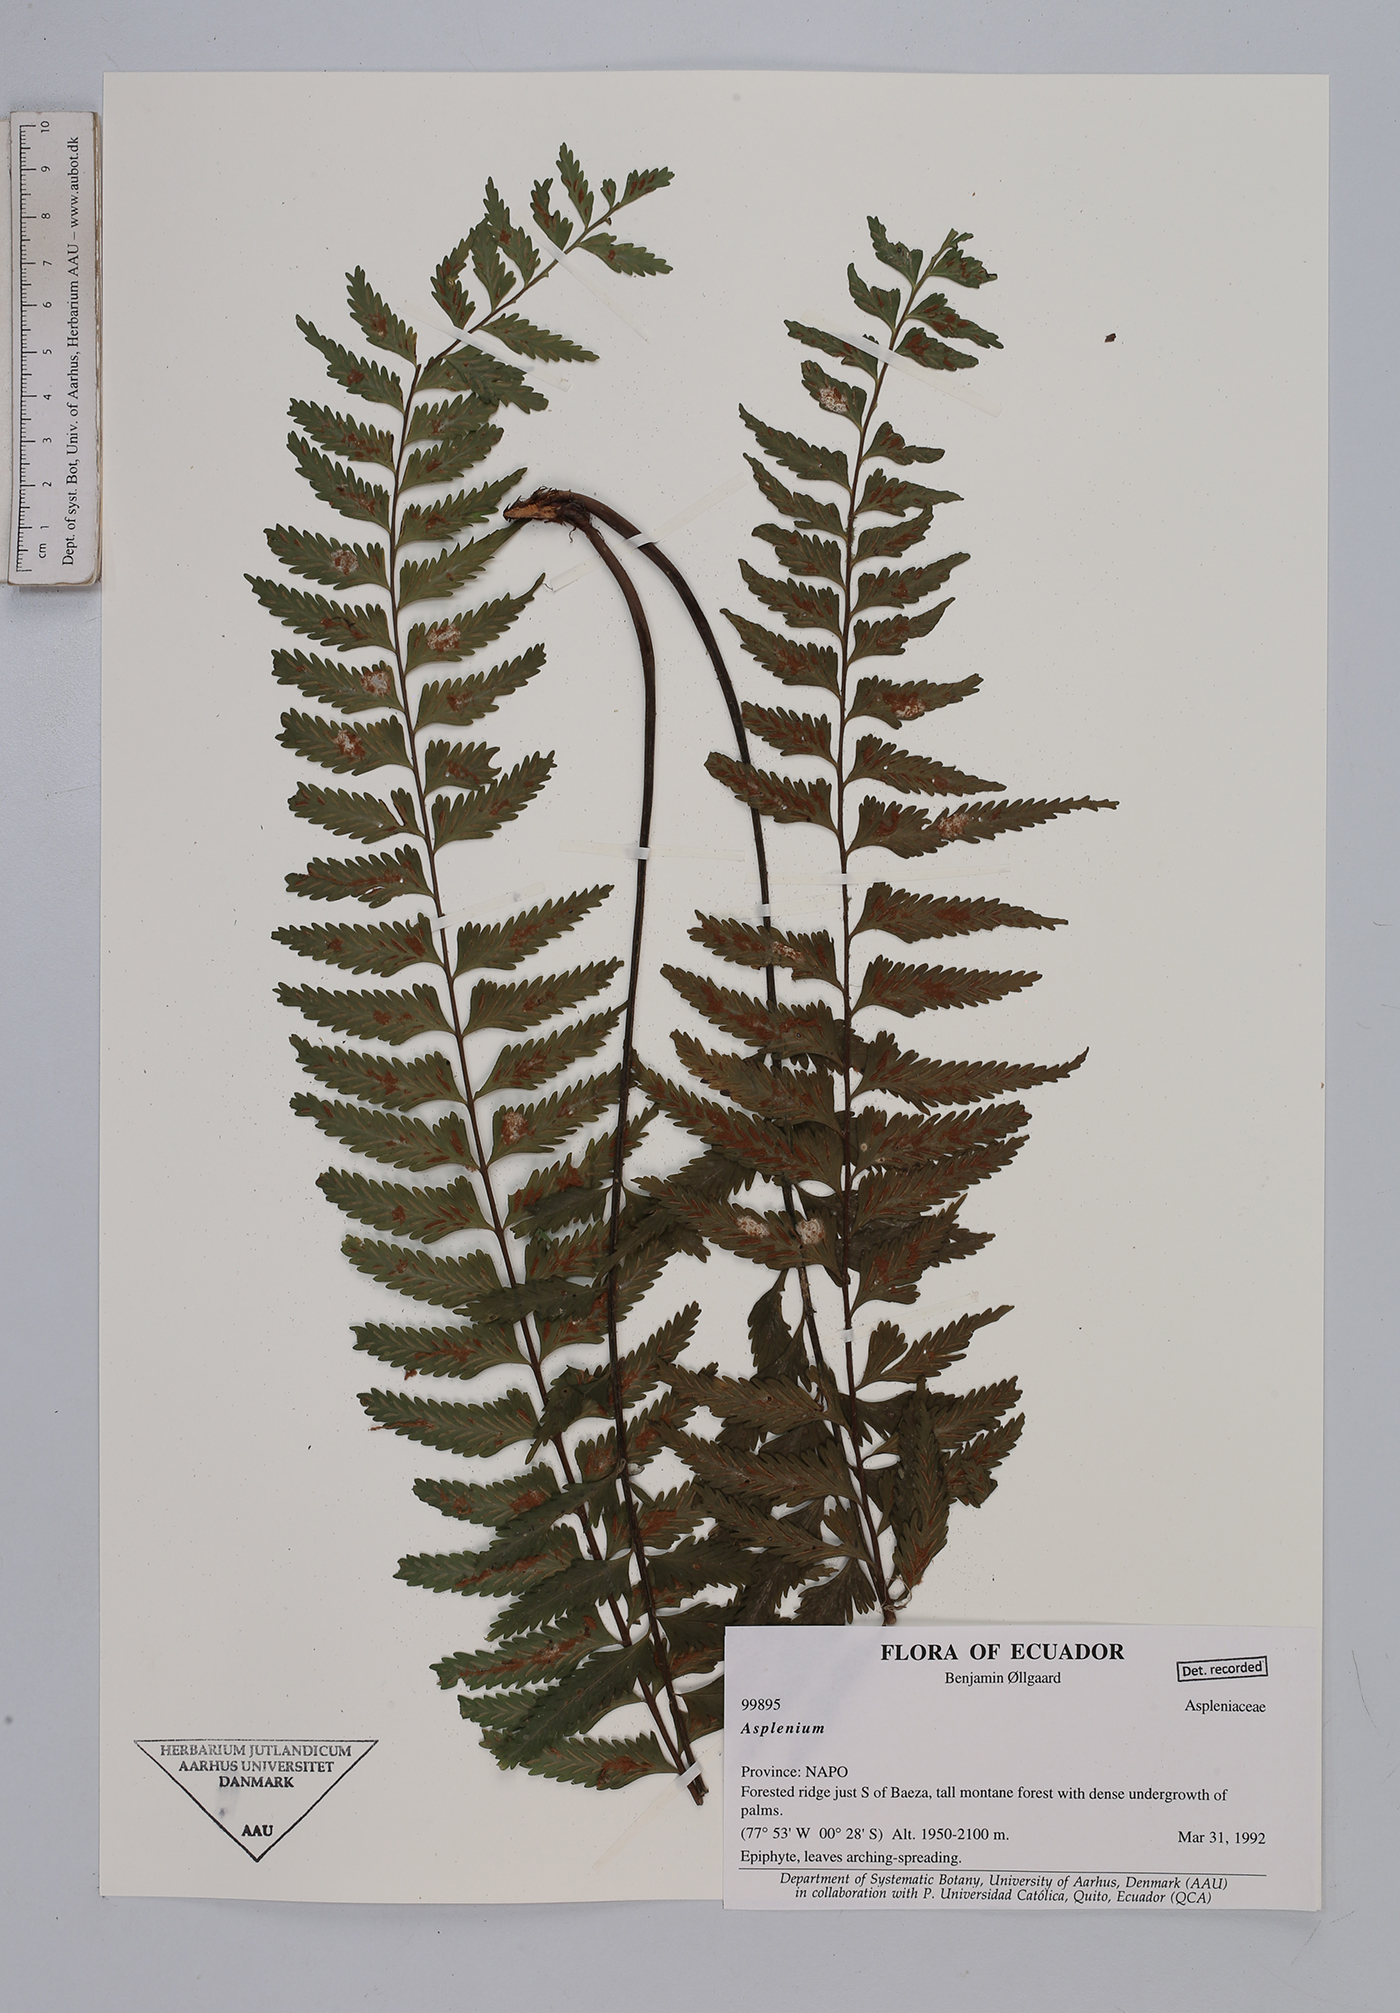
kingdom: Plantae
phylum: Tracheophyta
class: Polypodiopsida
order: Polypodiales
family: Aspleniaceae
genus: Asplenium
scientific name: Asplenium
